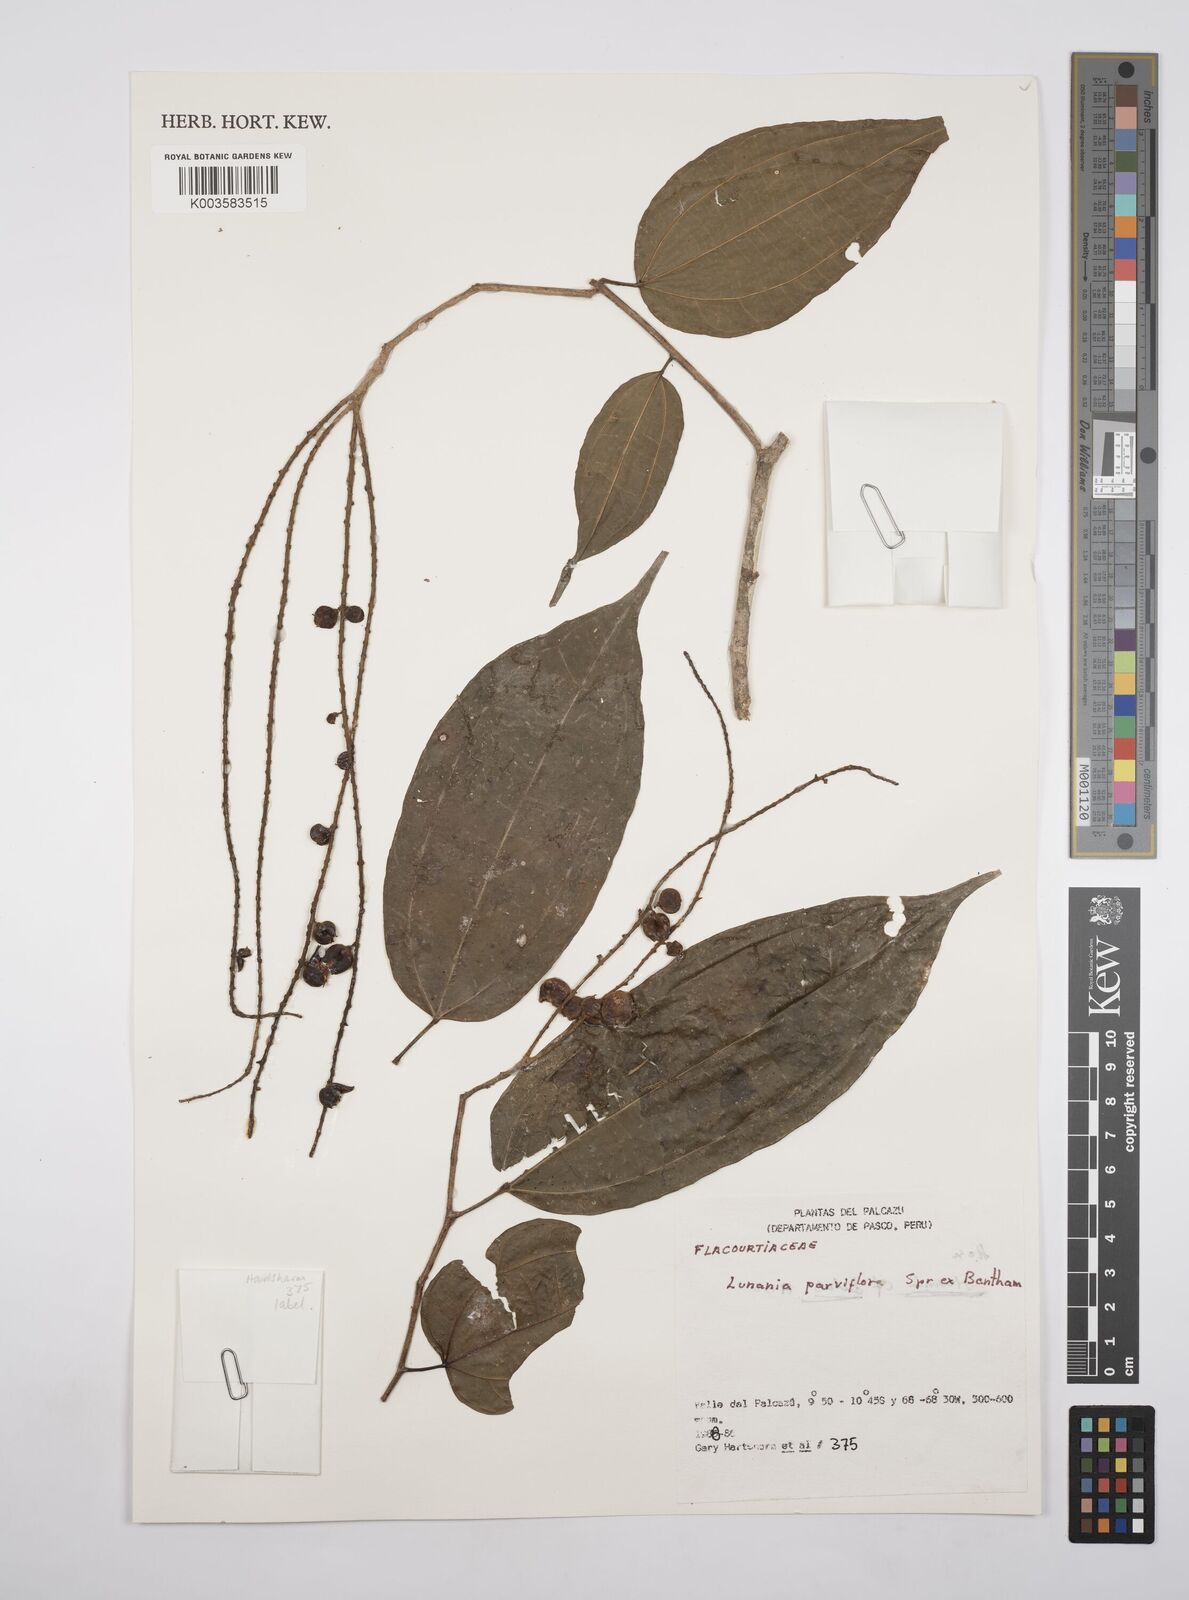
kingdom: Plantae
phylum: Tracheophyta
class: Magnoliopsida
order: Malpighiales
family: Salicaceae
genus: Lunania
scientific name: Lunania parviflora
